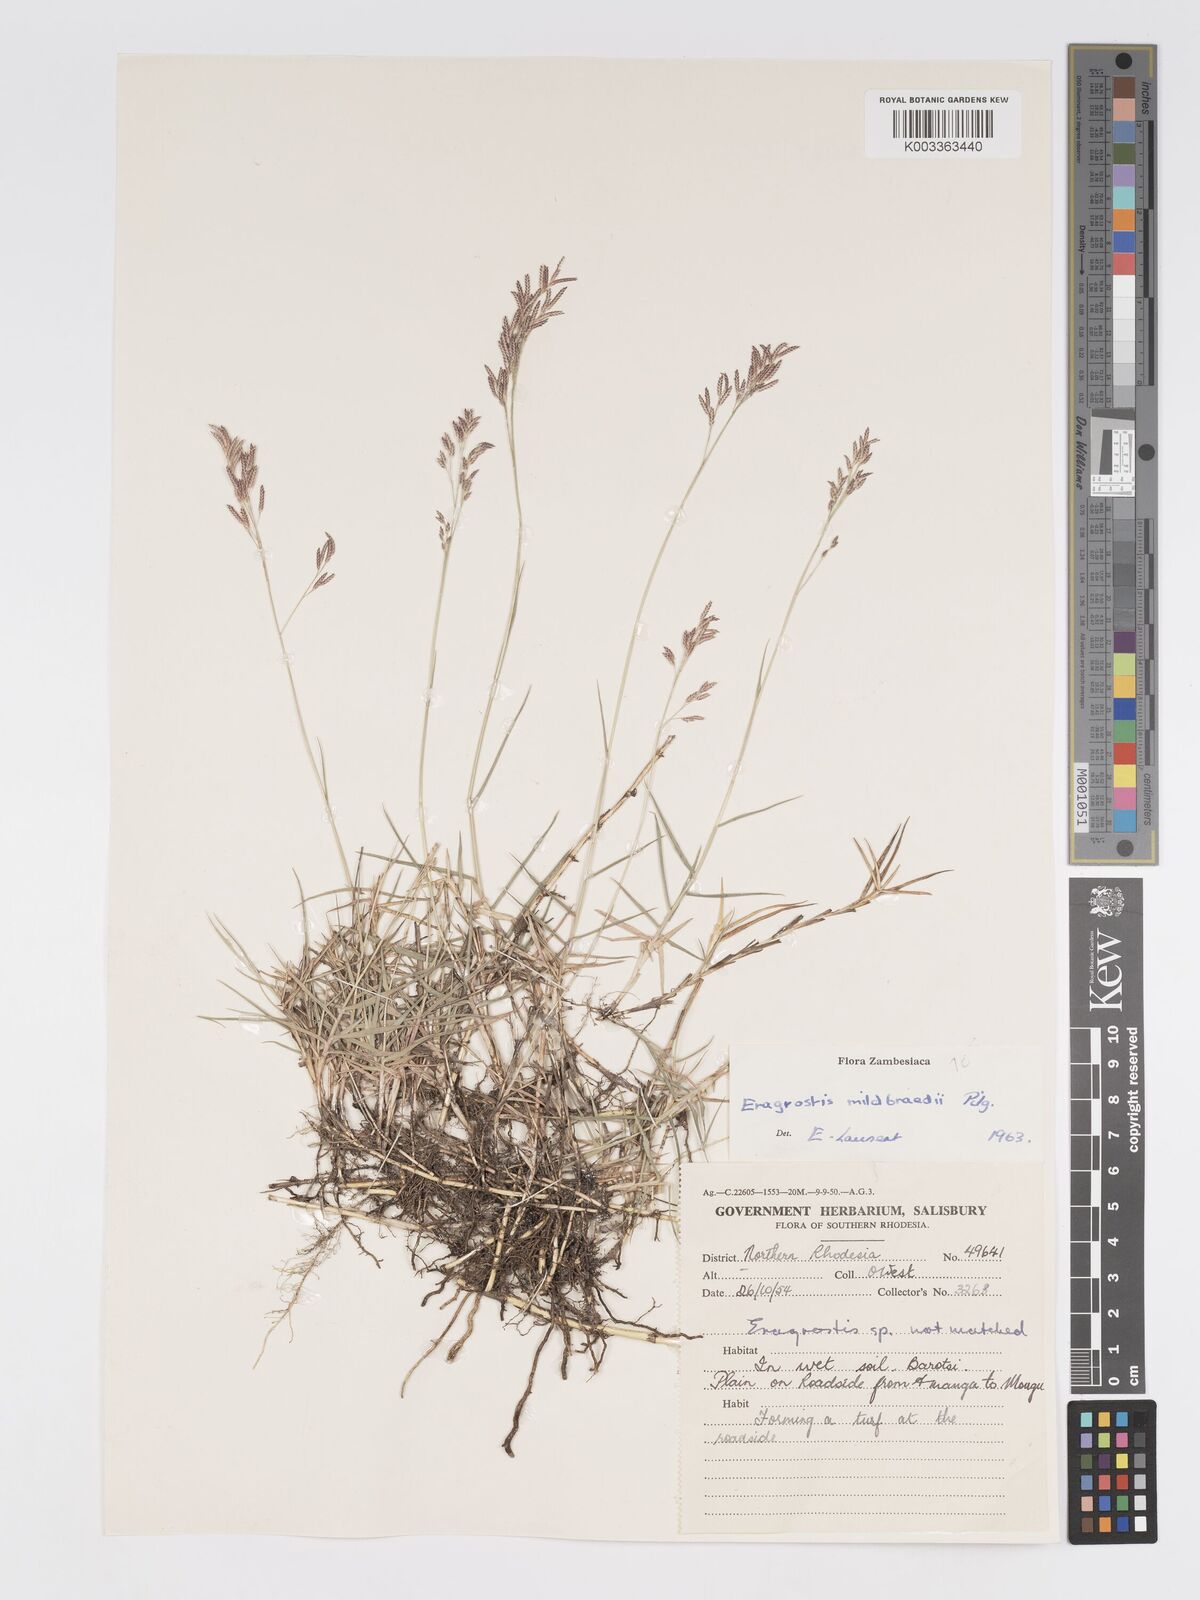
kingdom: Plantae
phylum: Tracheophyta
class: Liliopsida
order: Poales
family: Poaceae
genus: Eragrostis
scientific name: Eragrostis mildbraedii
